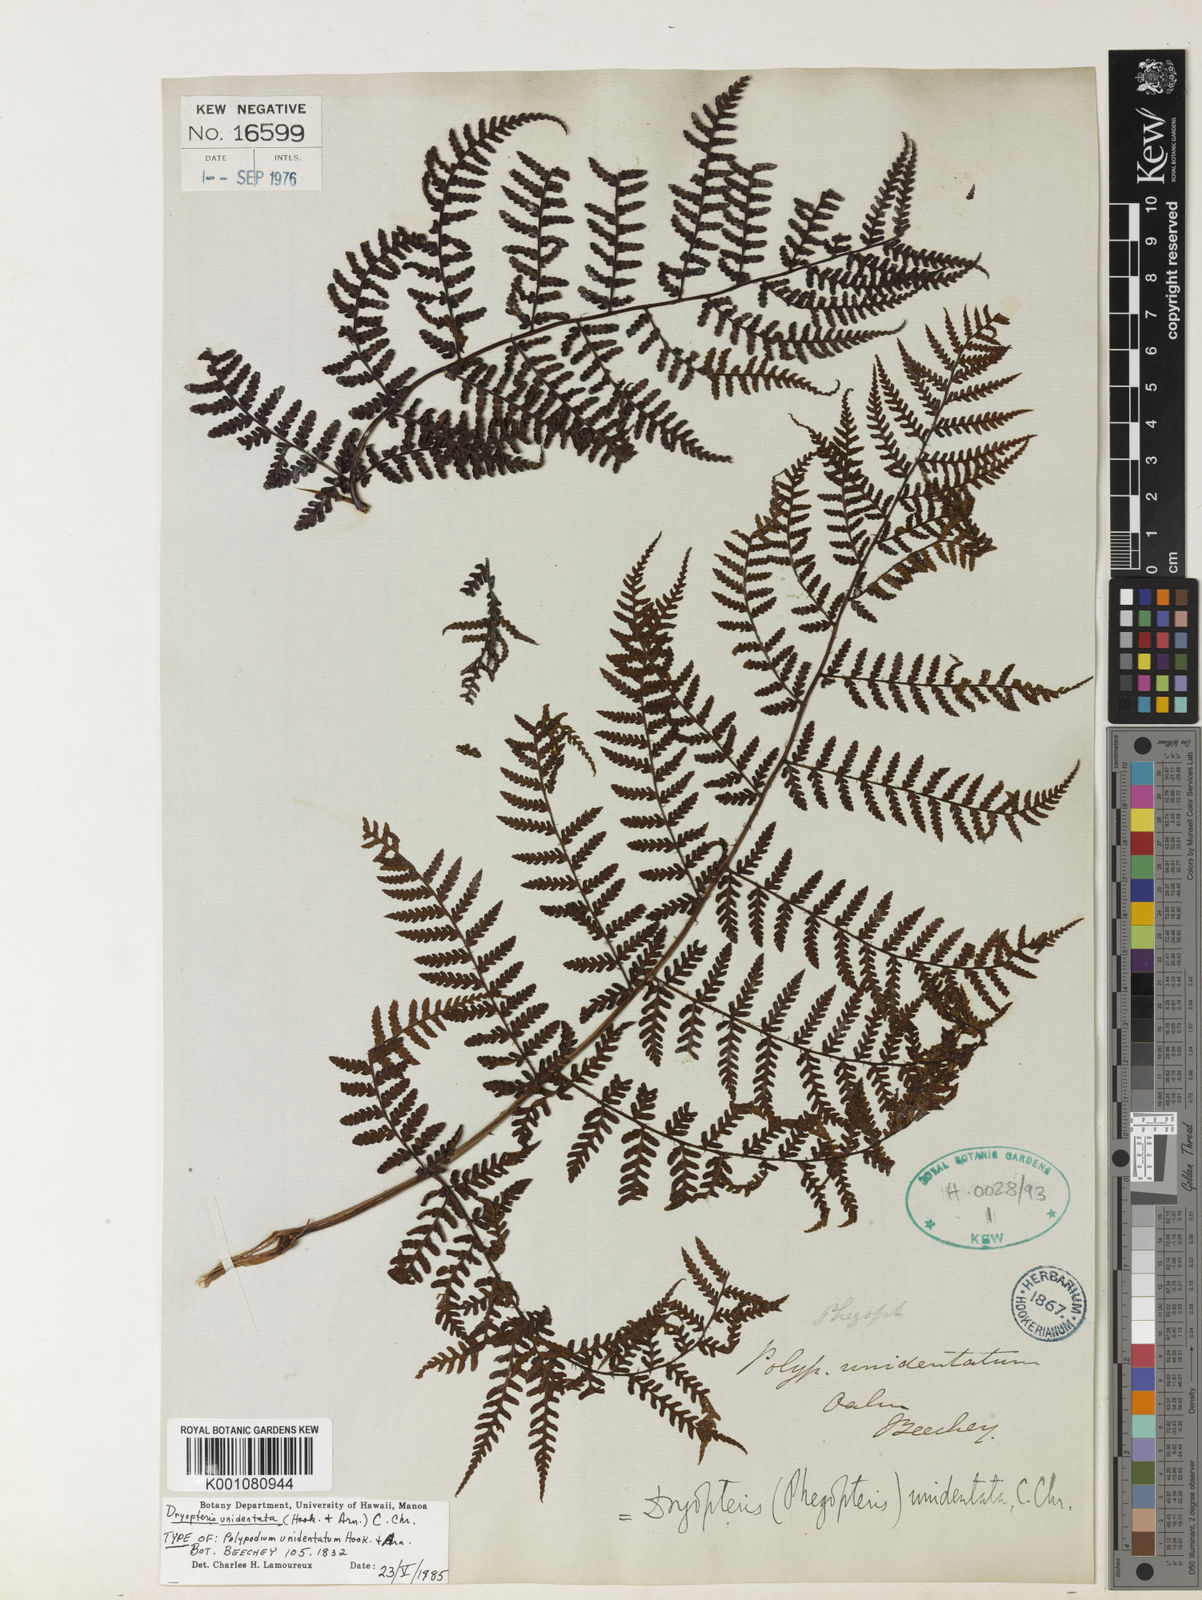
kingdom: Plantae
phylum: Tracheophyta
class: Polypodiopsida
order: Polypodiales
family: Dryopteridaceae
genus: Dryopteris
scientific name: Dryopteris unidentata
